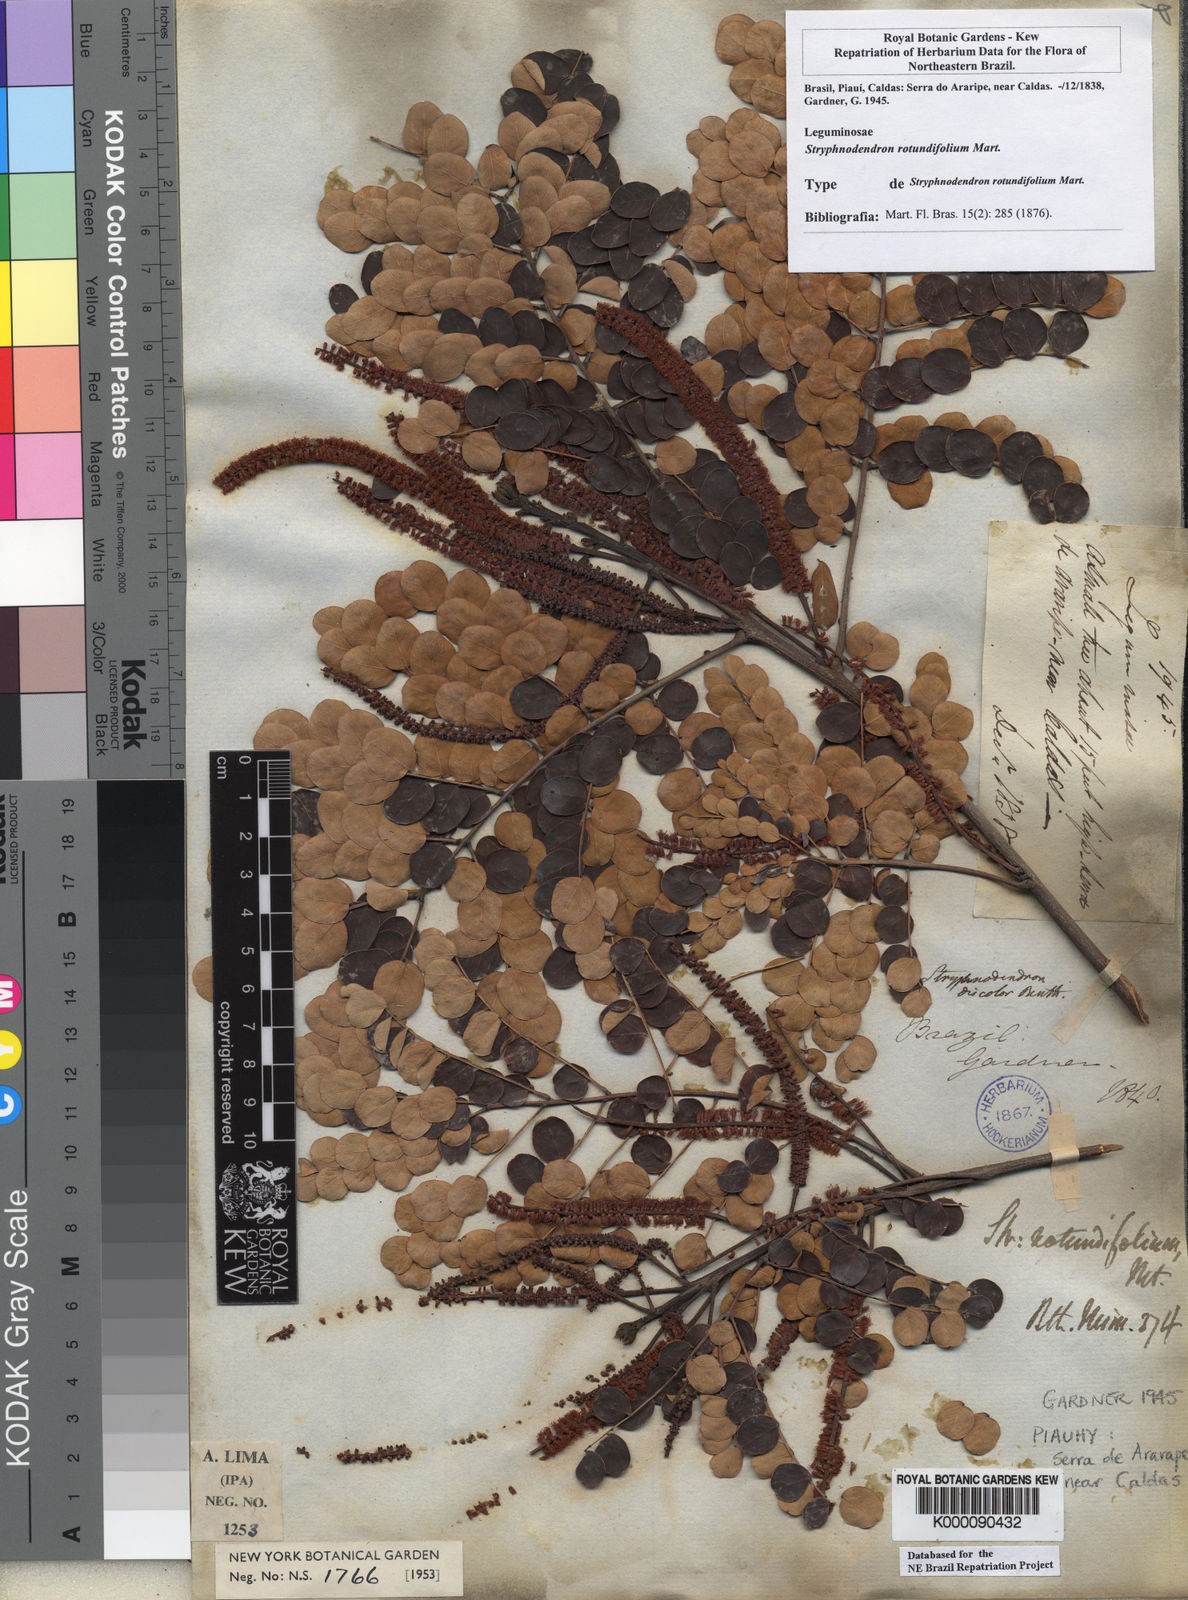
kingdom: Plantae
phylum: Tracheophyta
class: Magnoliopsida
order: Fabales
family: Fabaceae
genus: Stryphnodendron
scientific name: Stryphnodendron rotundifolium
